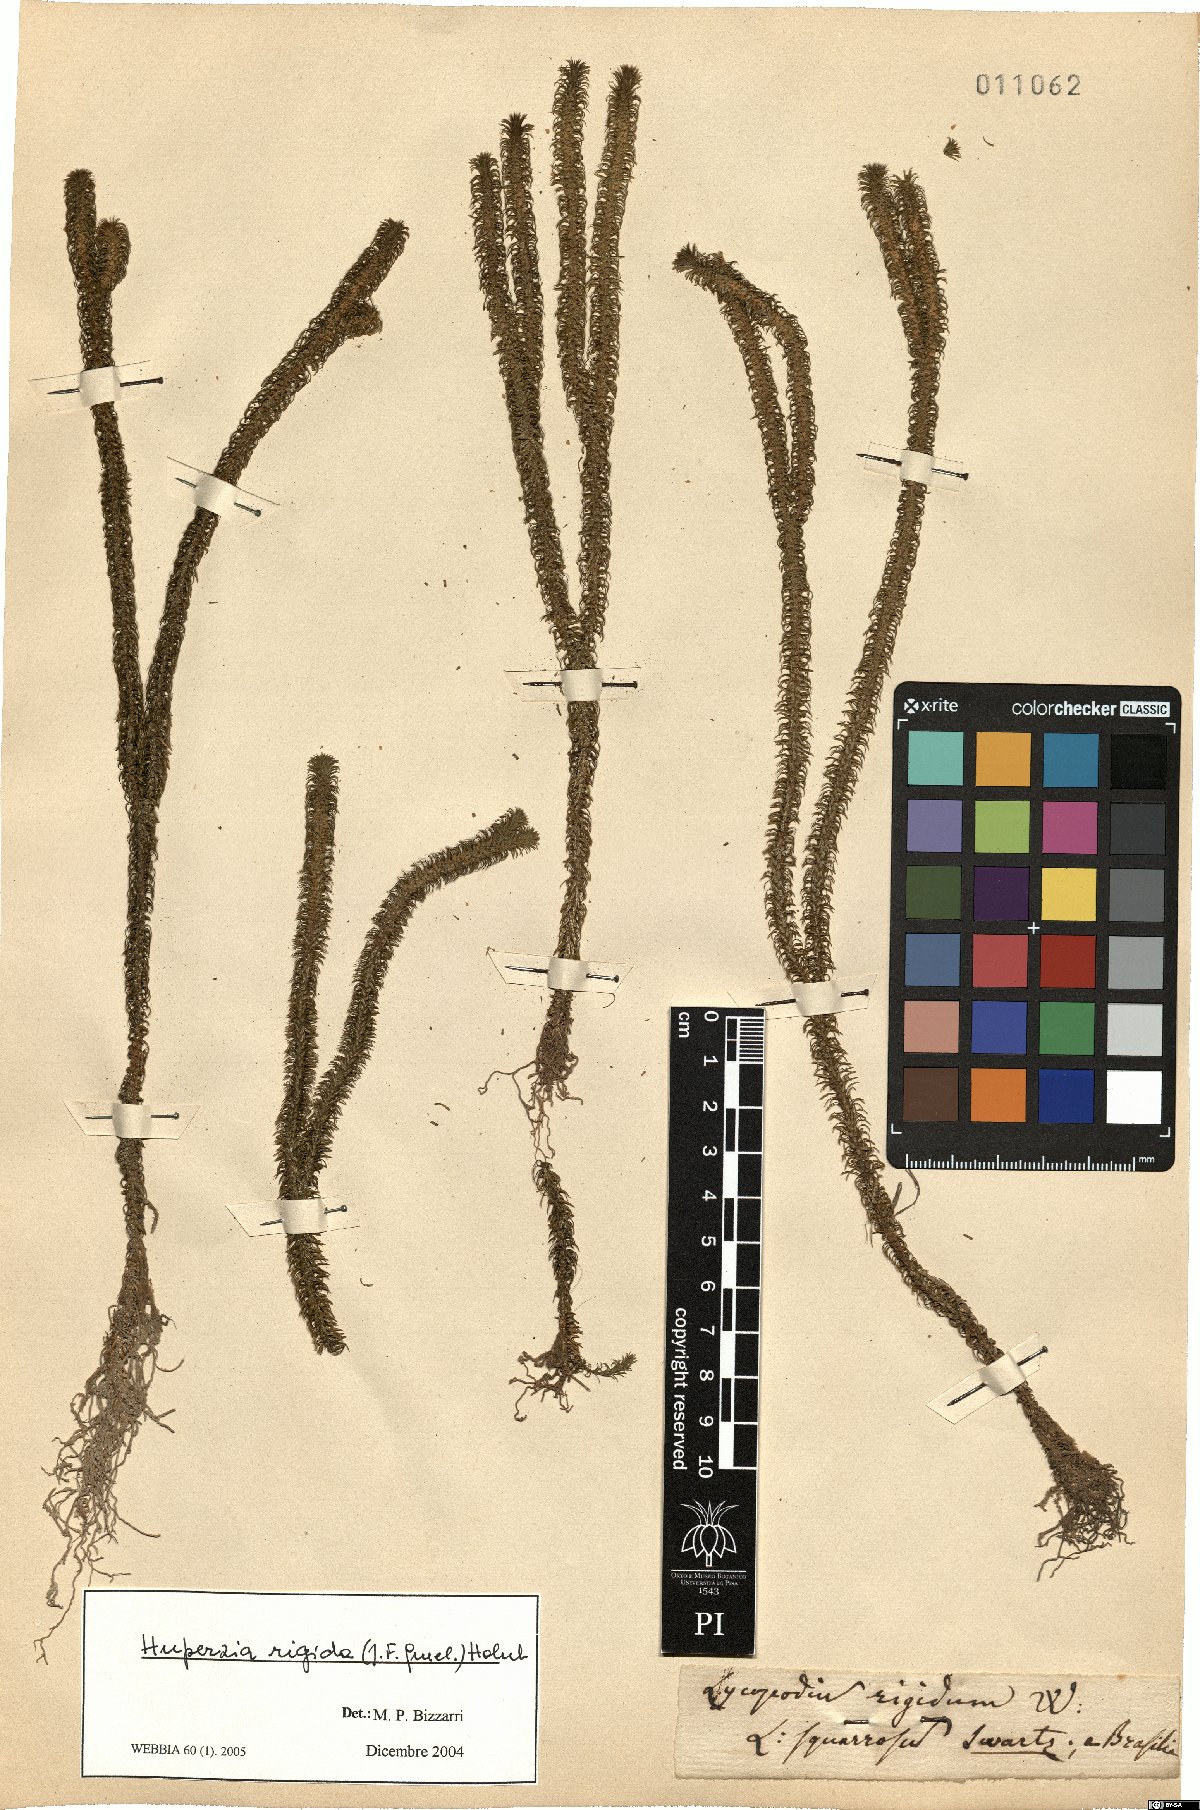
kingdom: Plantae
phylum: Tracheophyta
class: Lycopodiopsida
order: Lycopodiales
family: Lycopodiaceae
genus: Phlegmariurus
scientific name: Phlegmariurus reflexus
